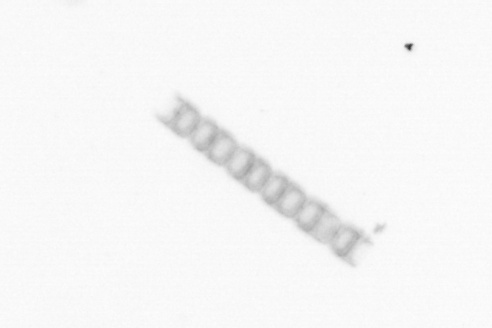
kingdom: Chromista
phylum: Ochrophyta
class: Bacillariophyceae
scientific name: Bacillariophyceae
